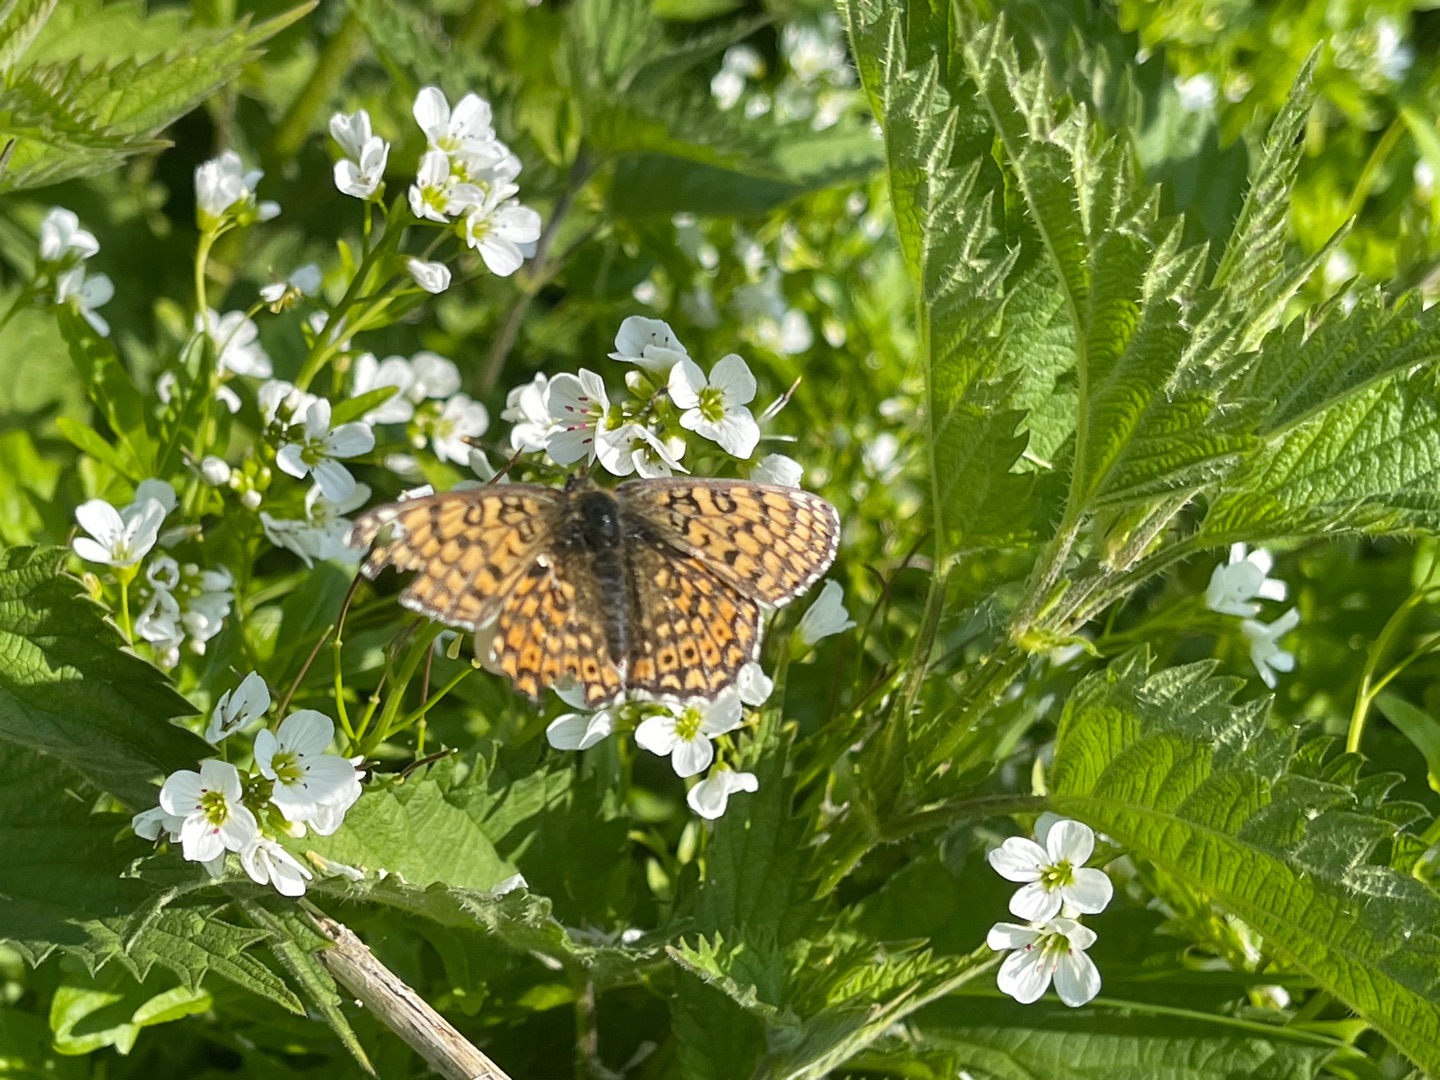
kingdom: Animalia
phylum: Arthropoda
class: Insecta
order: Lepidoptera
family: Nymphalidae
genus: Melitaea
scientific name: Melitaea cinxia
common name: Okkergul pletvinge
